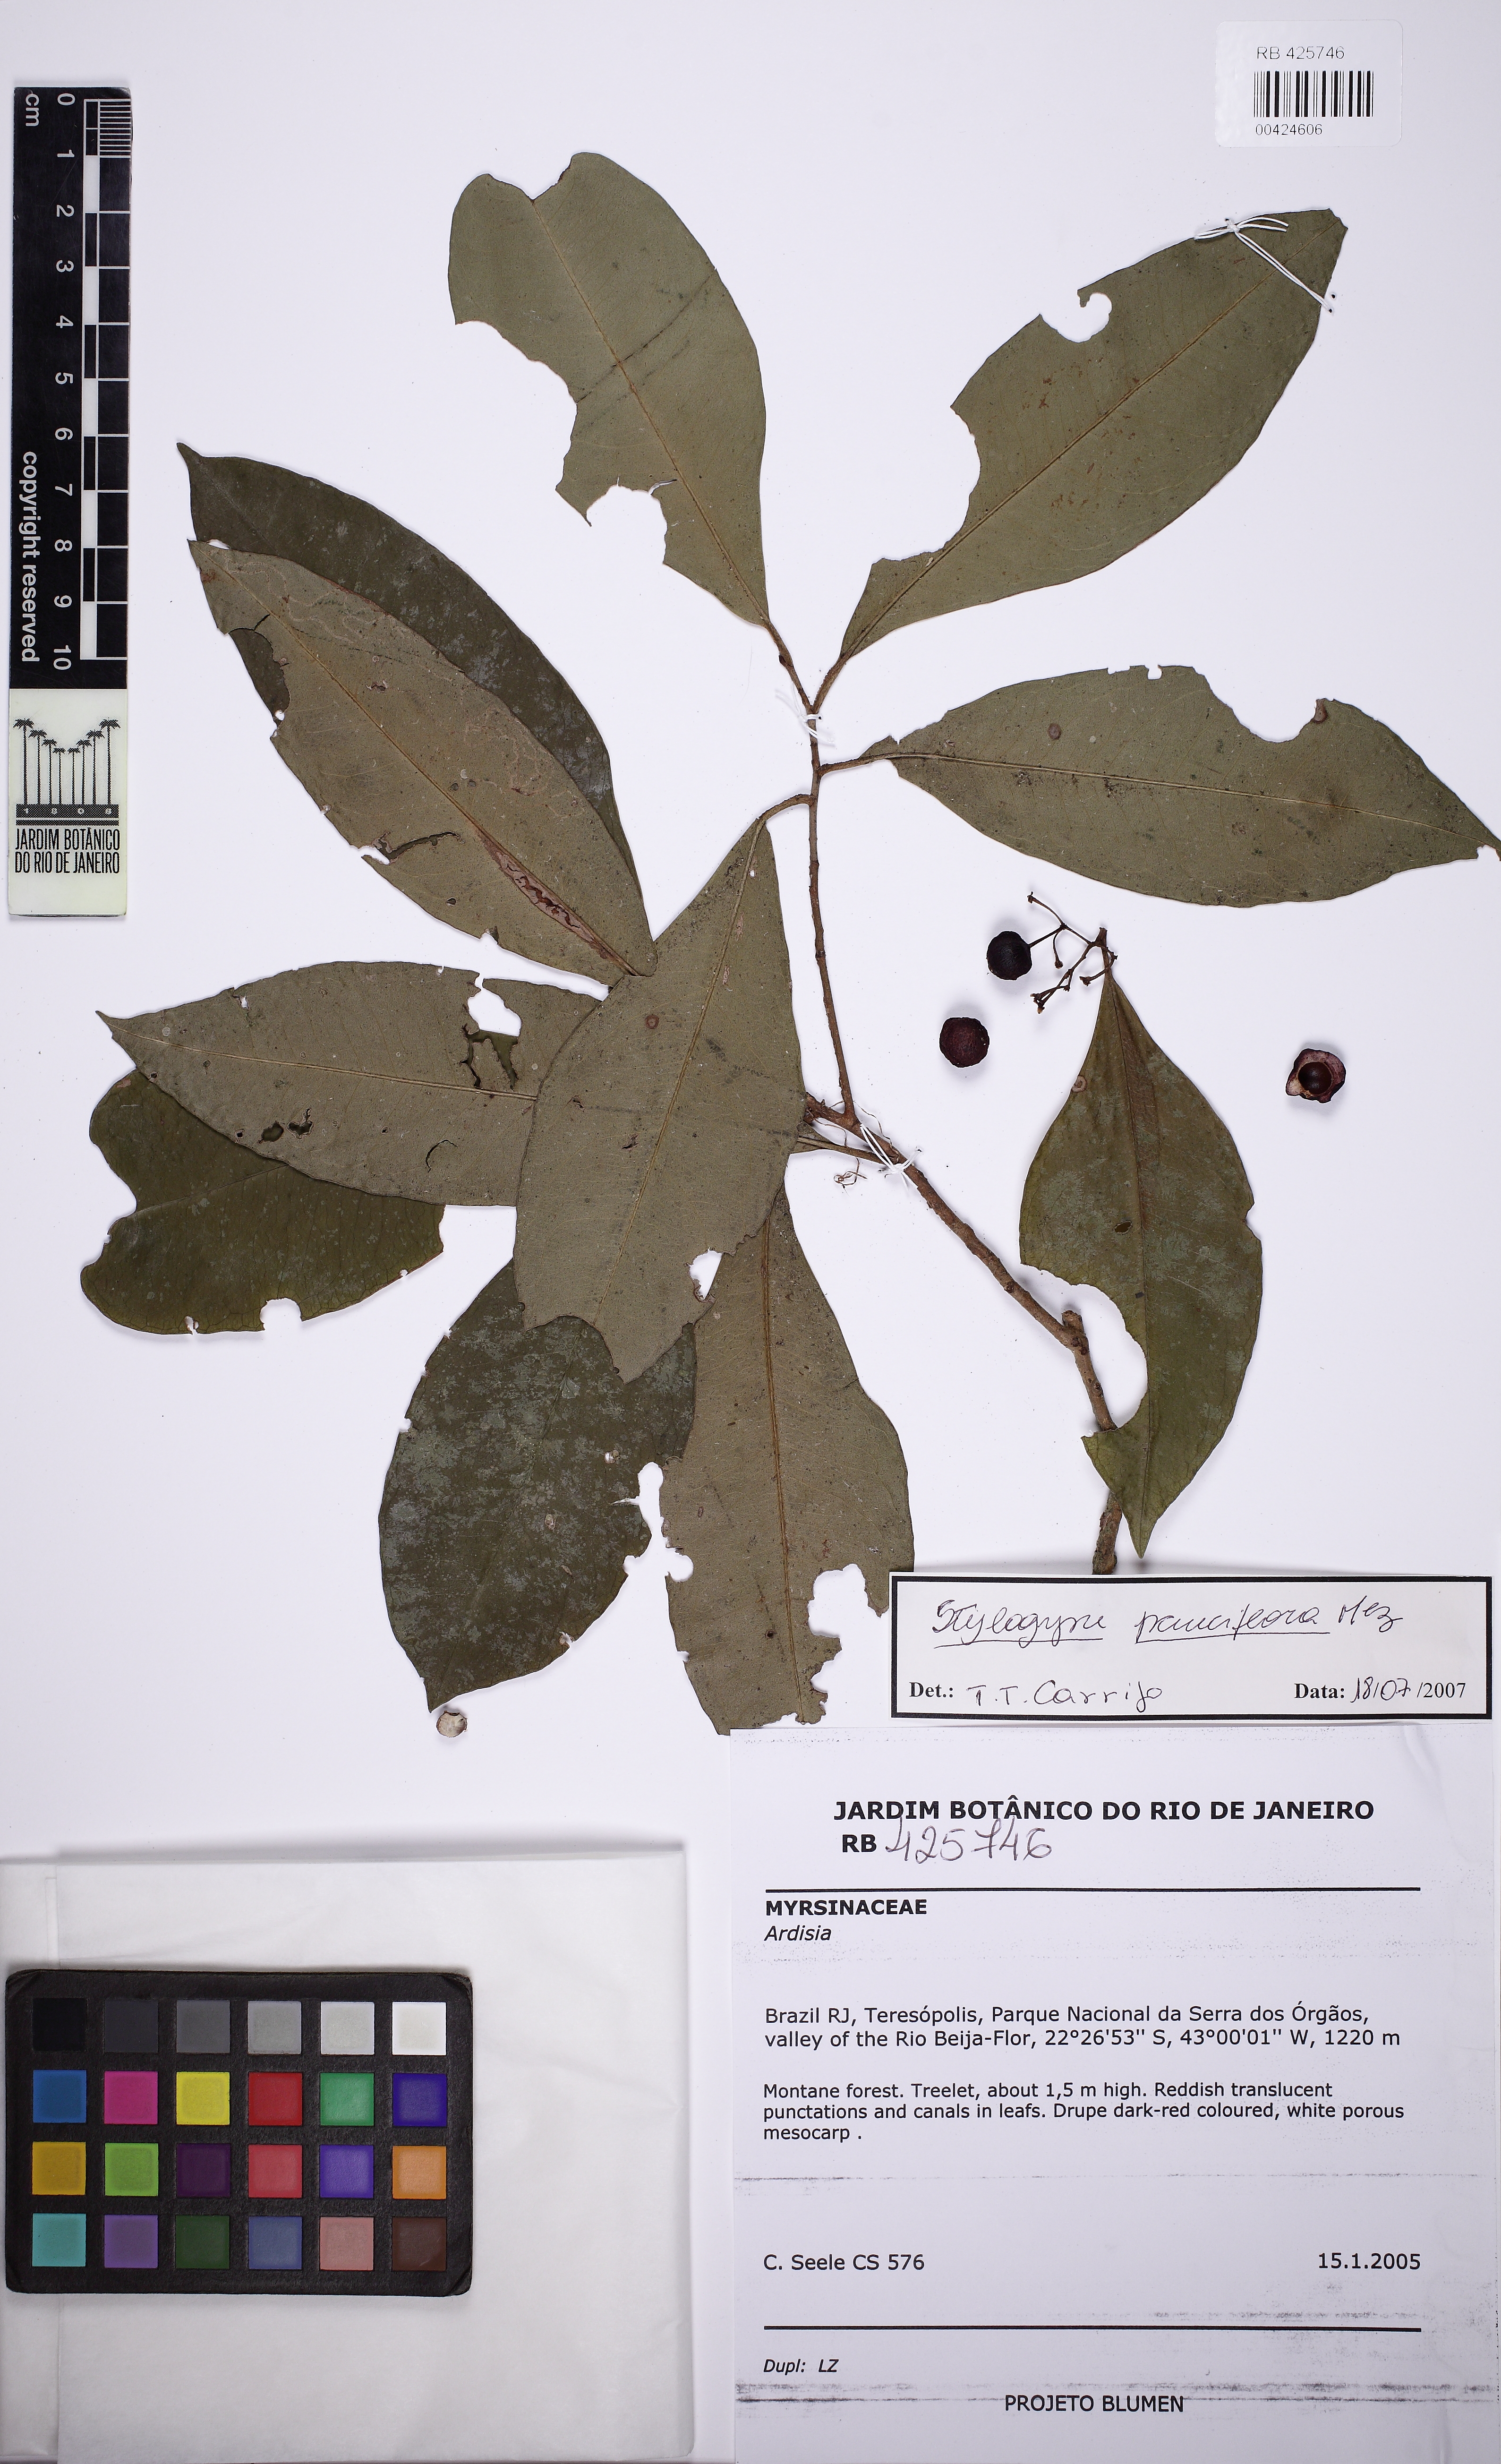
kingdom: Plantae
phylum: Tracheophyta
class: Magnoliopsida
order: Ericales
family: Primulaceae
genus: Stylogyne
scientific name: Stylogyne pauciflora
